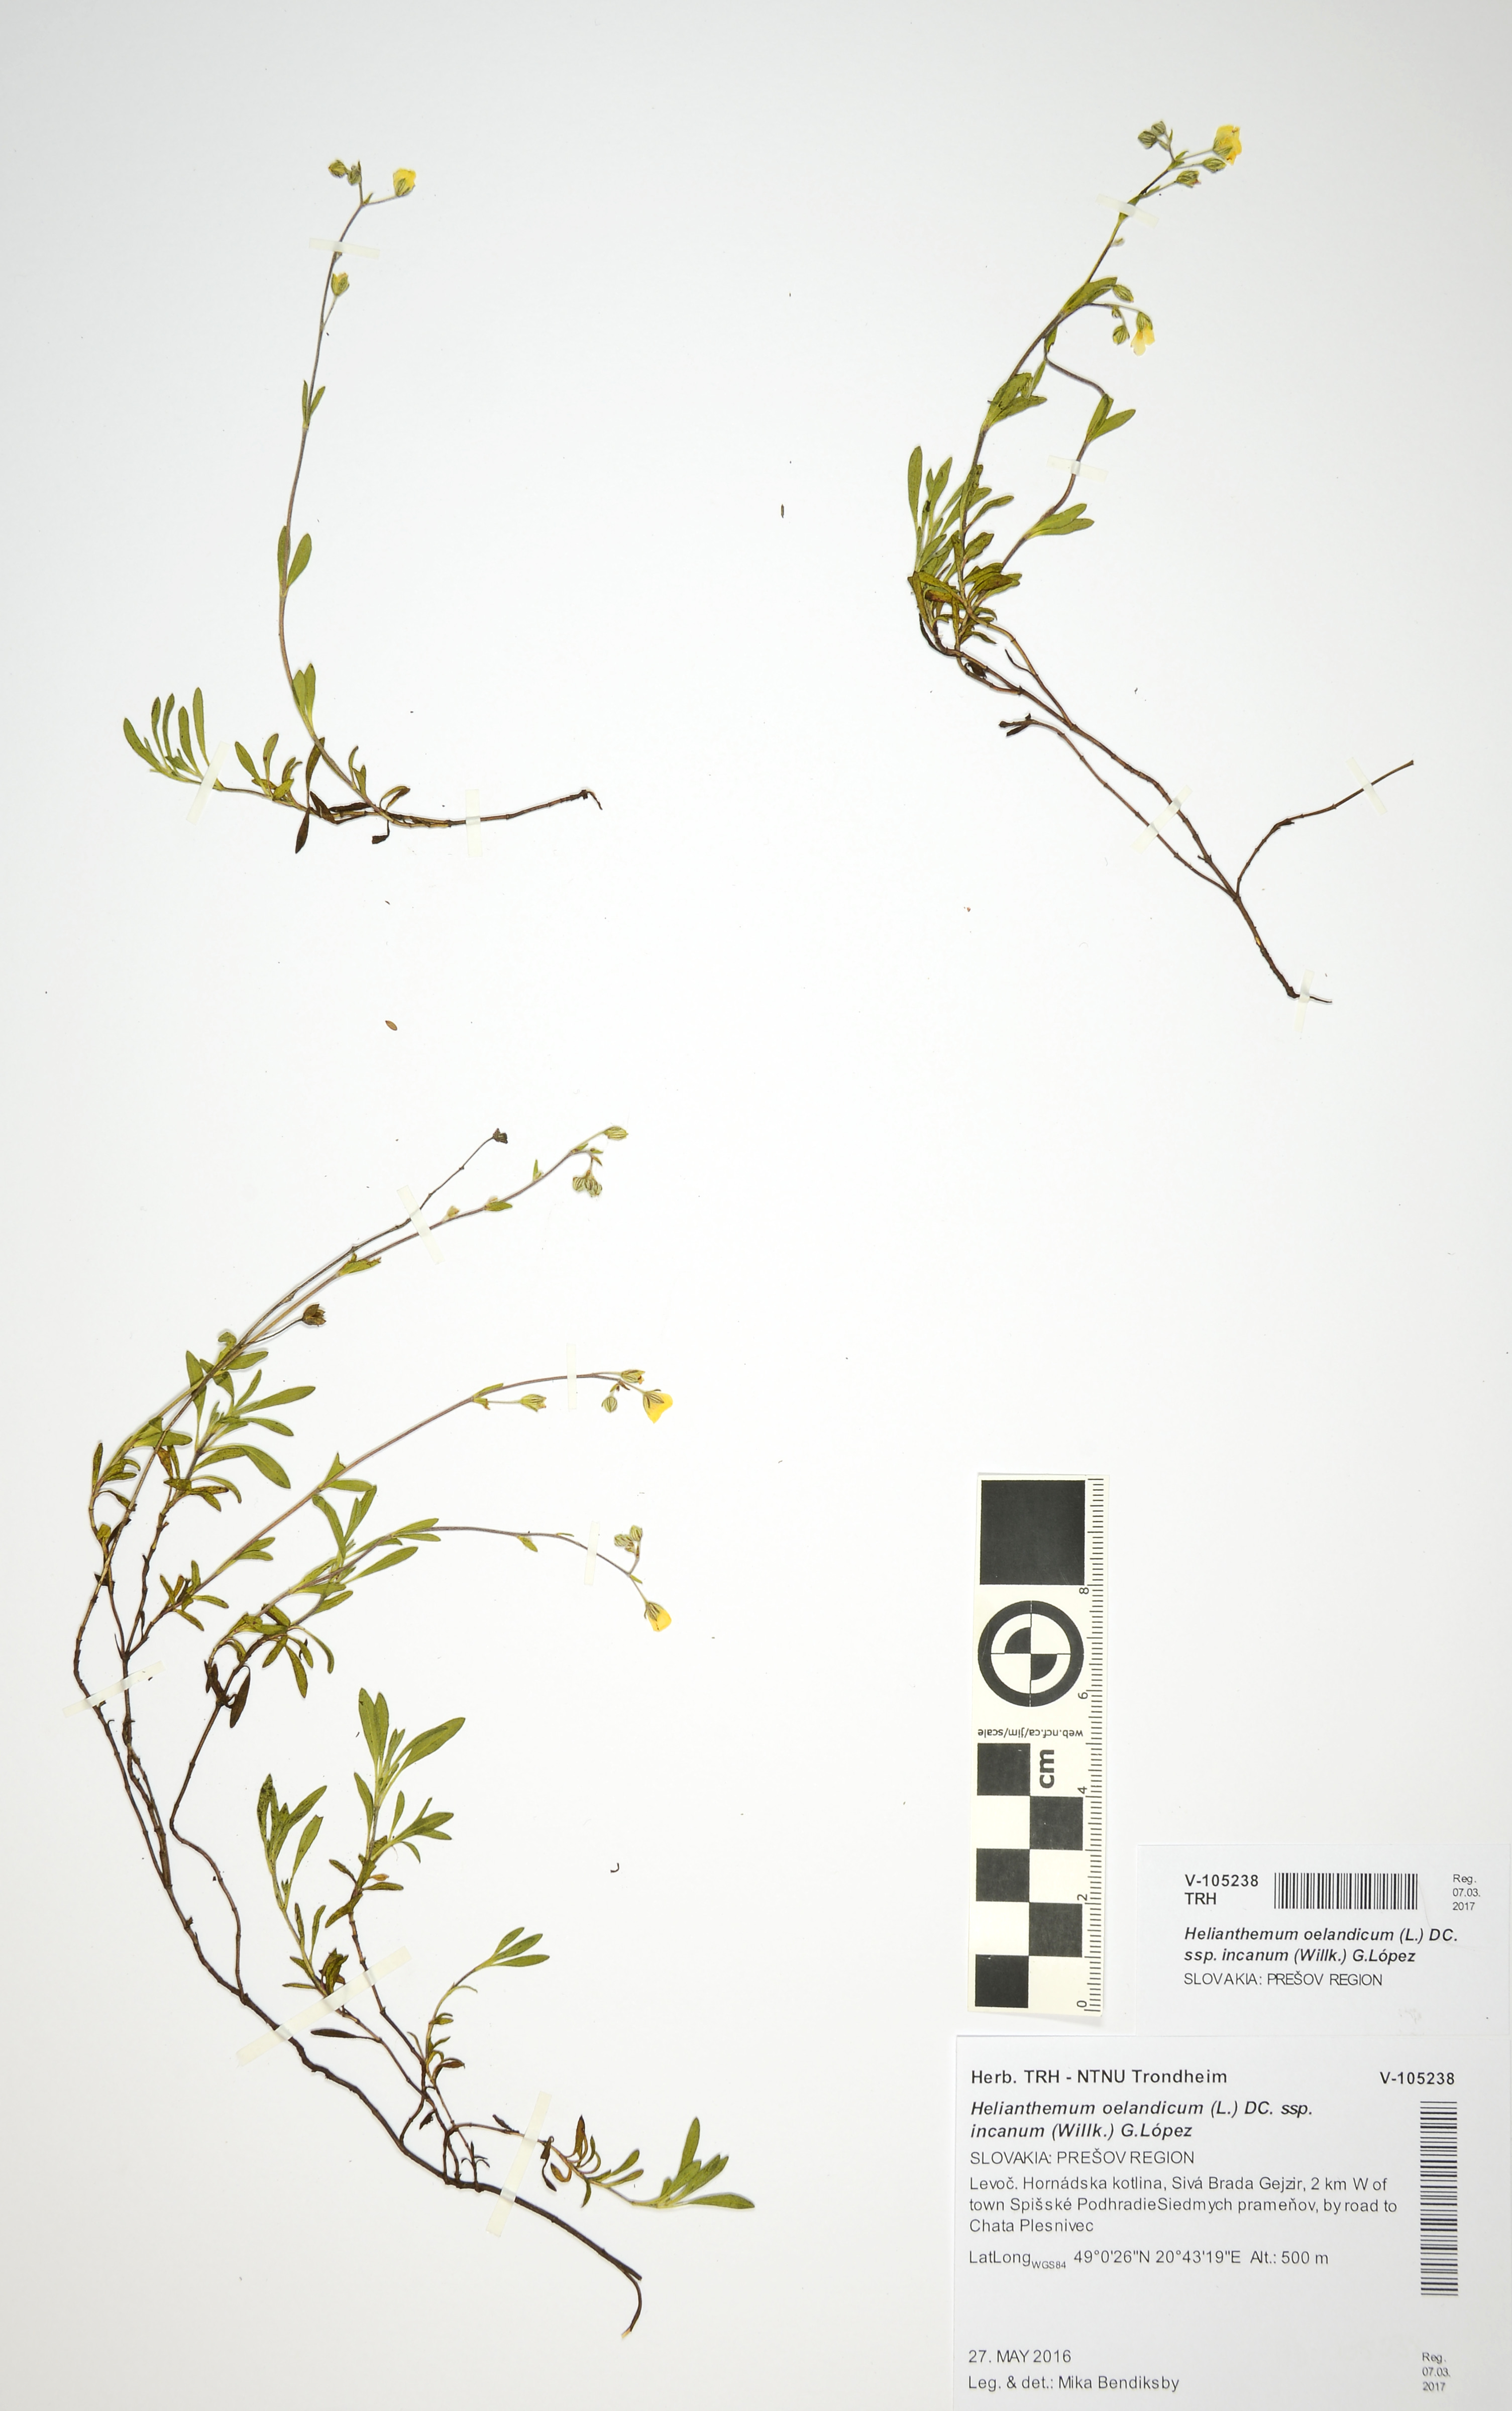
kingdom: Plantae
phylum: Tracheophyta
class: Magnoliopsida
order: Malvales
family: Cistaceae
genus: Helianthemum
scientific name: Helianthemum canum
